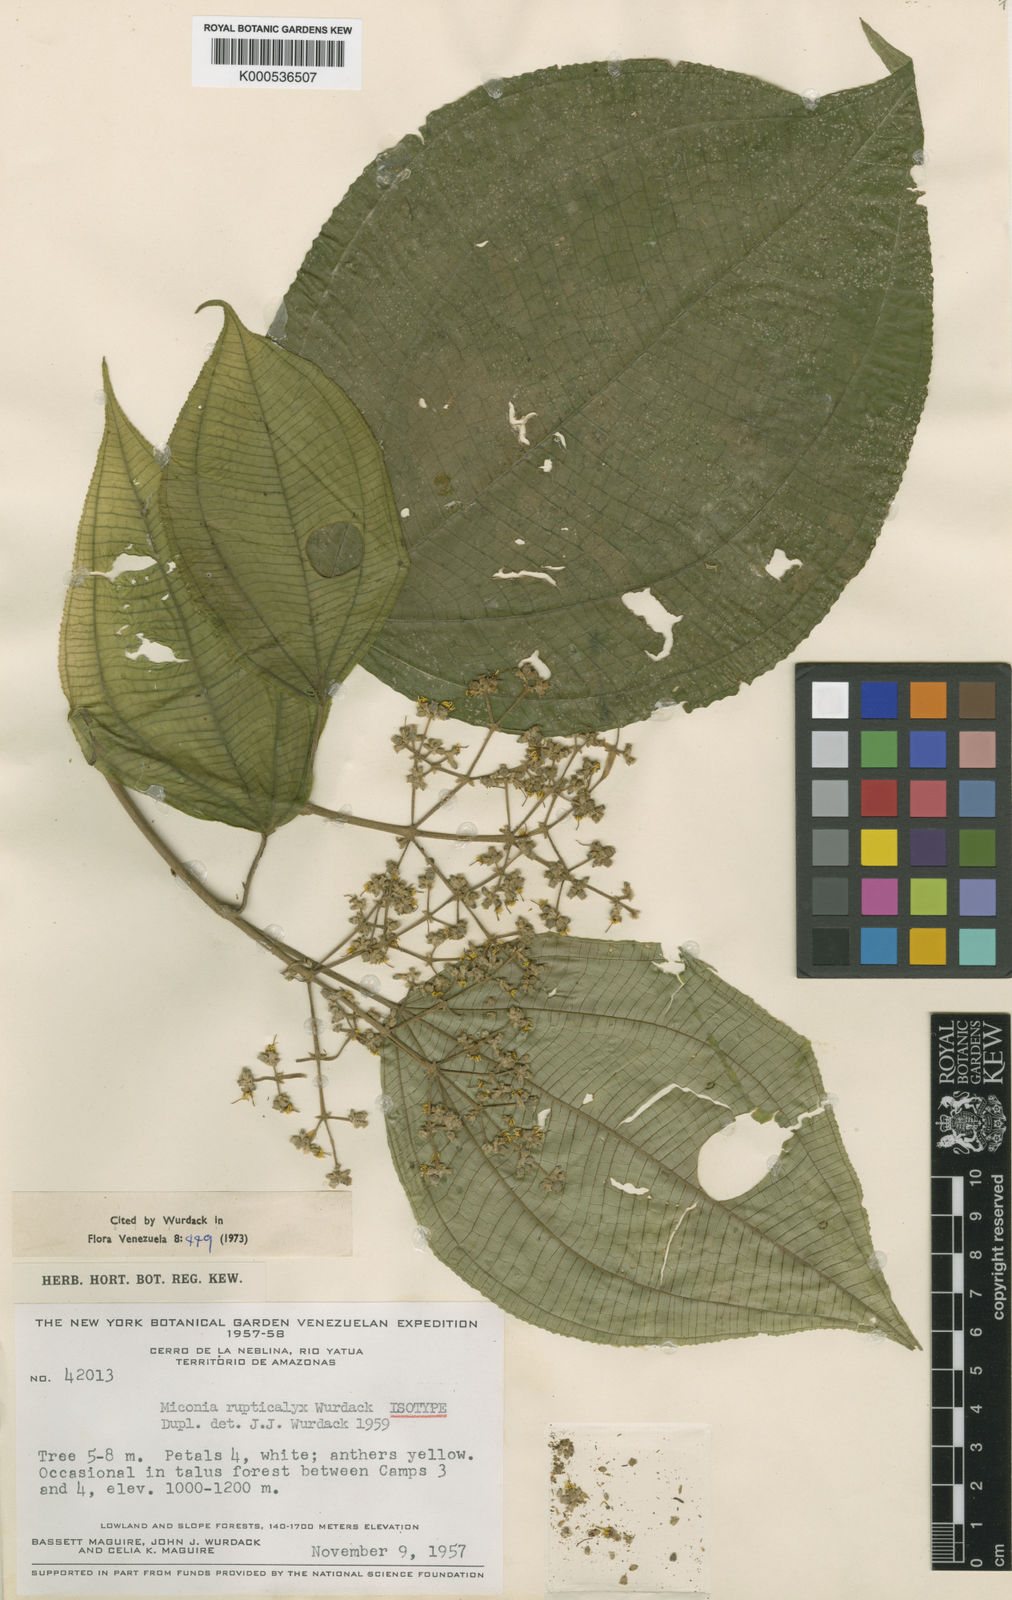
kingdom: Plantae
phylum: Tracheophyta
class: Magnoliopsida
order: Myrtales
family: Melastomataceae
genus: Miconia
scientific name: Miconia rupticalyx
